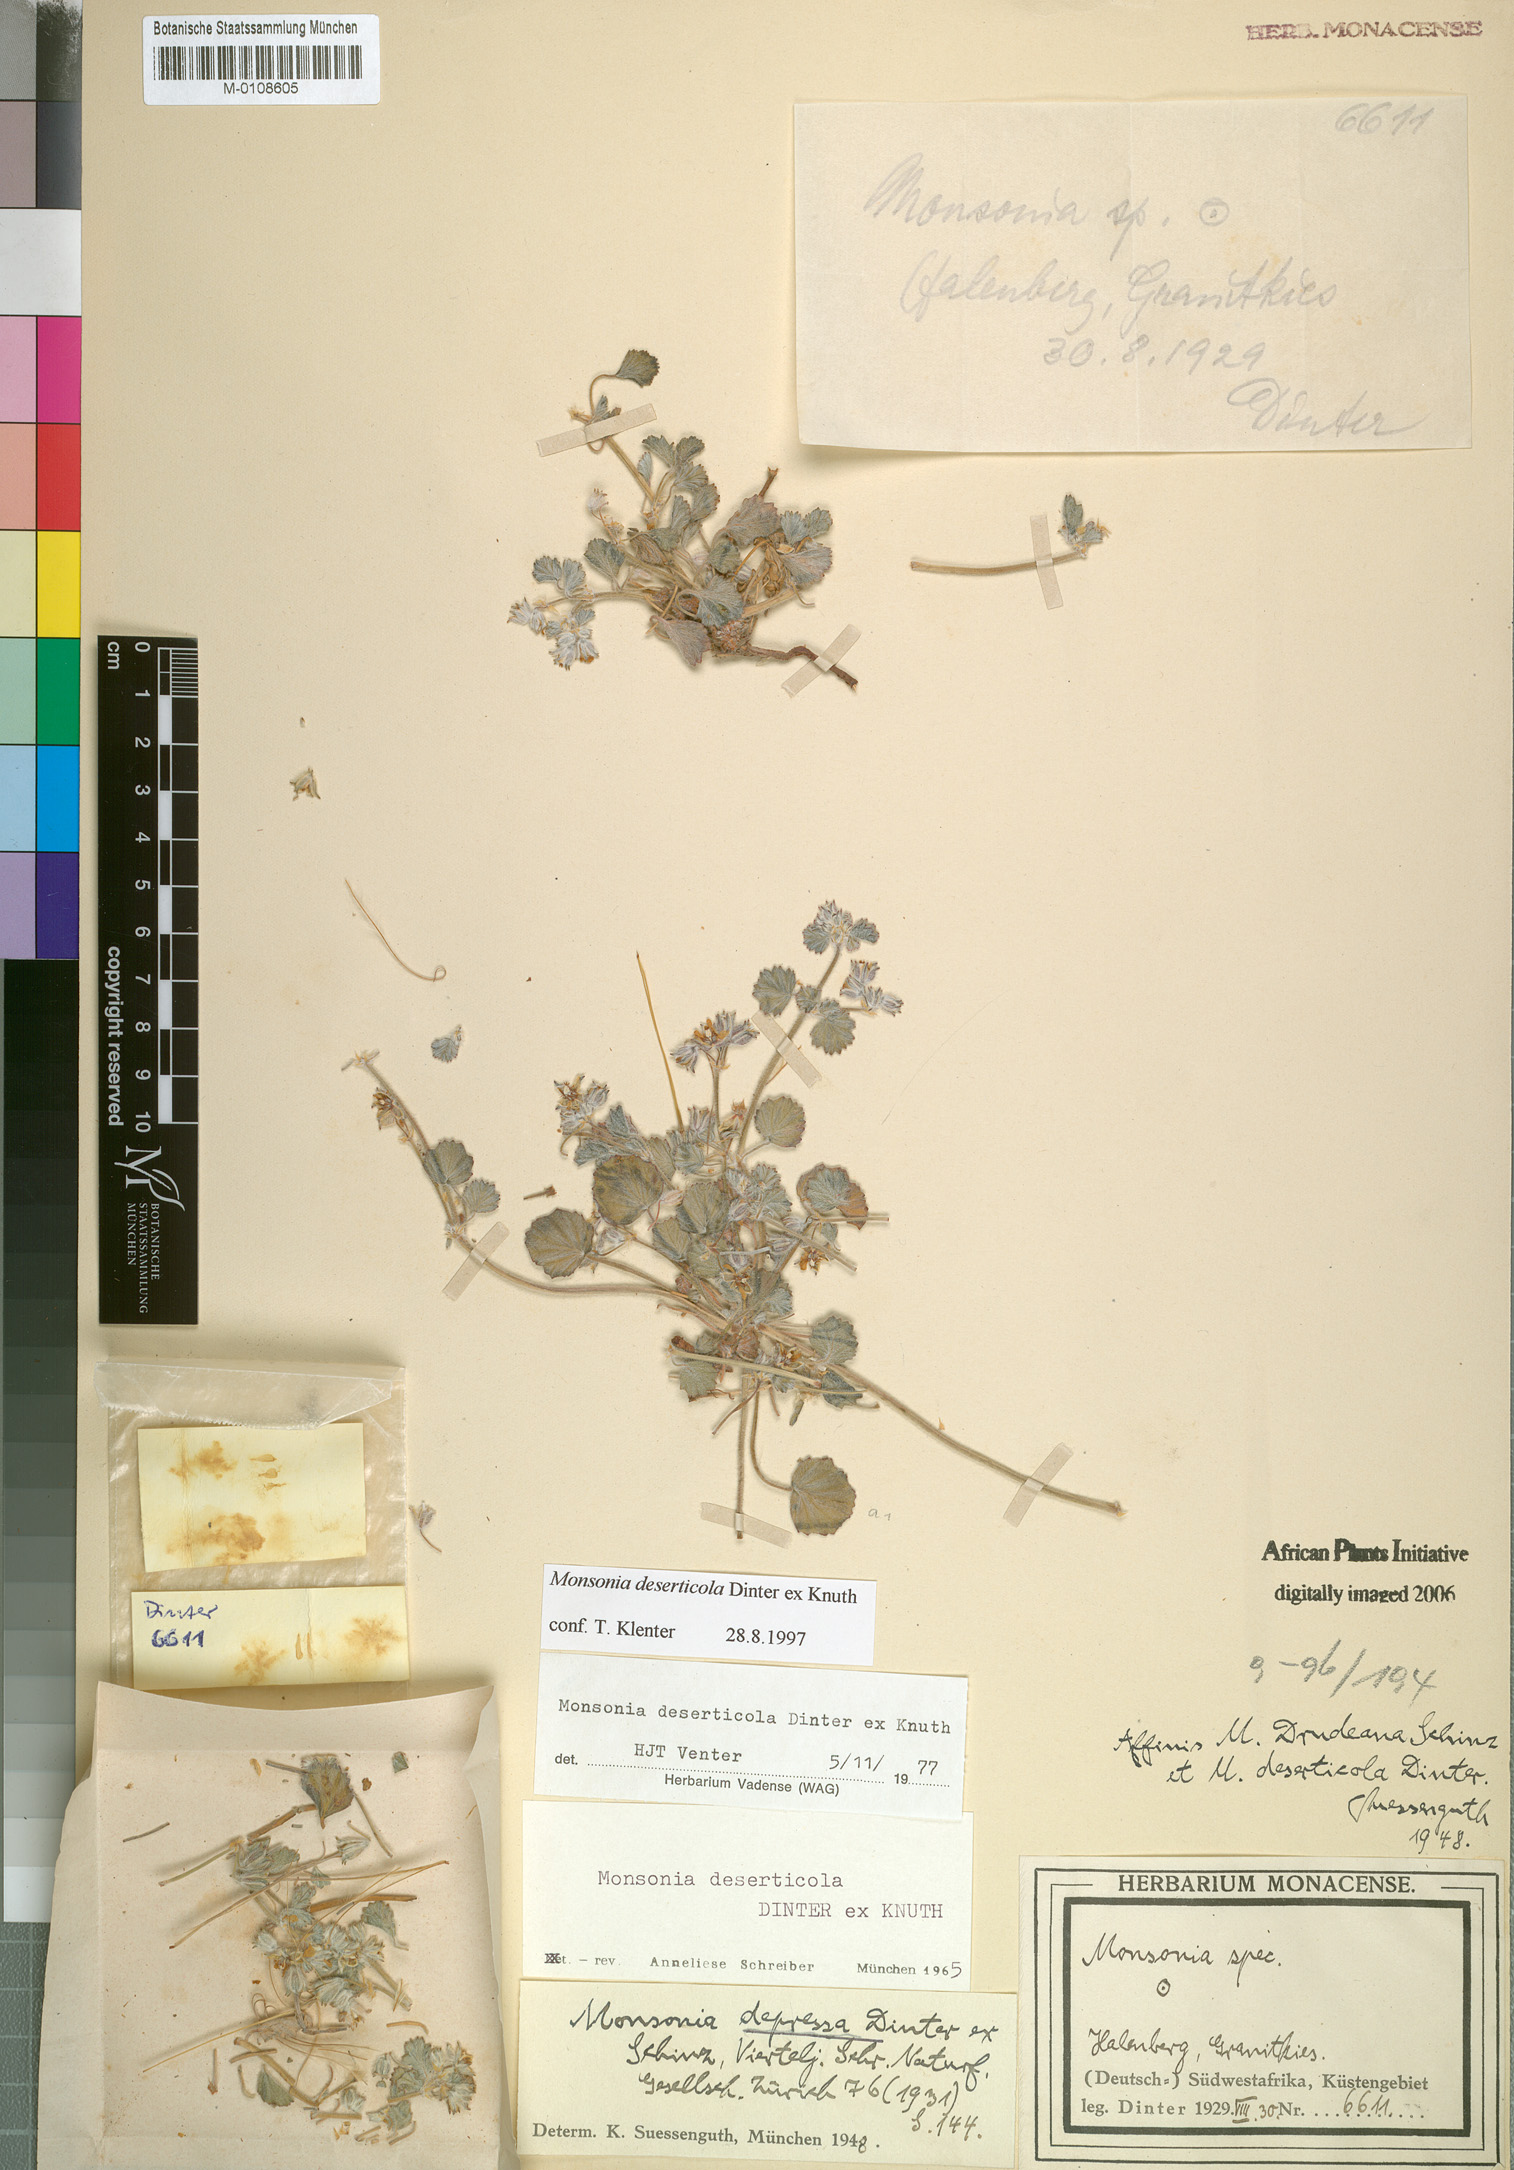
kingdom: Plantae
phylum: Tracheophyta
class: Magnoliopsida
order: Geraniales
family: Geraniaceae
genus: Monsonia
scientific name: Monsonia deserticola
